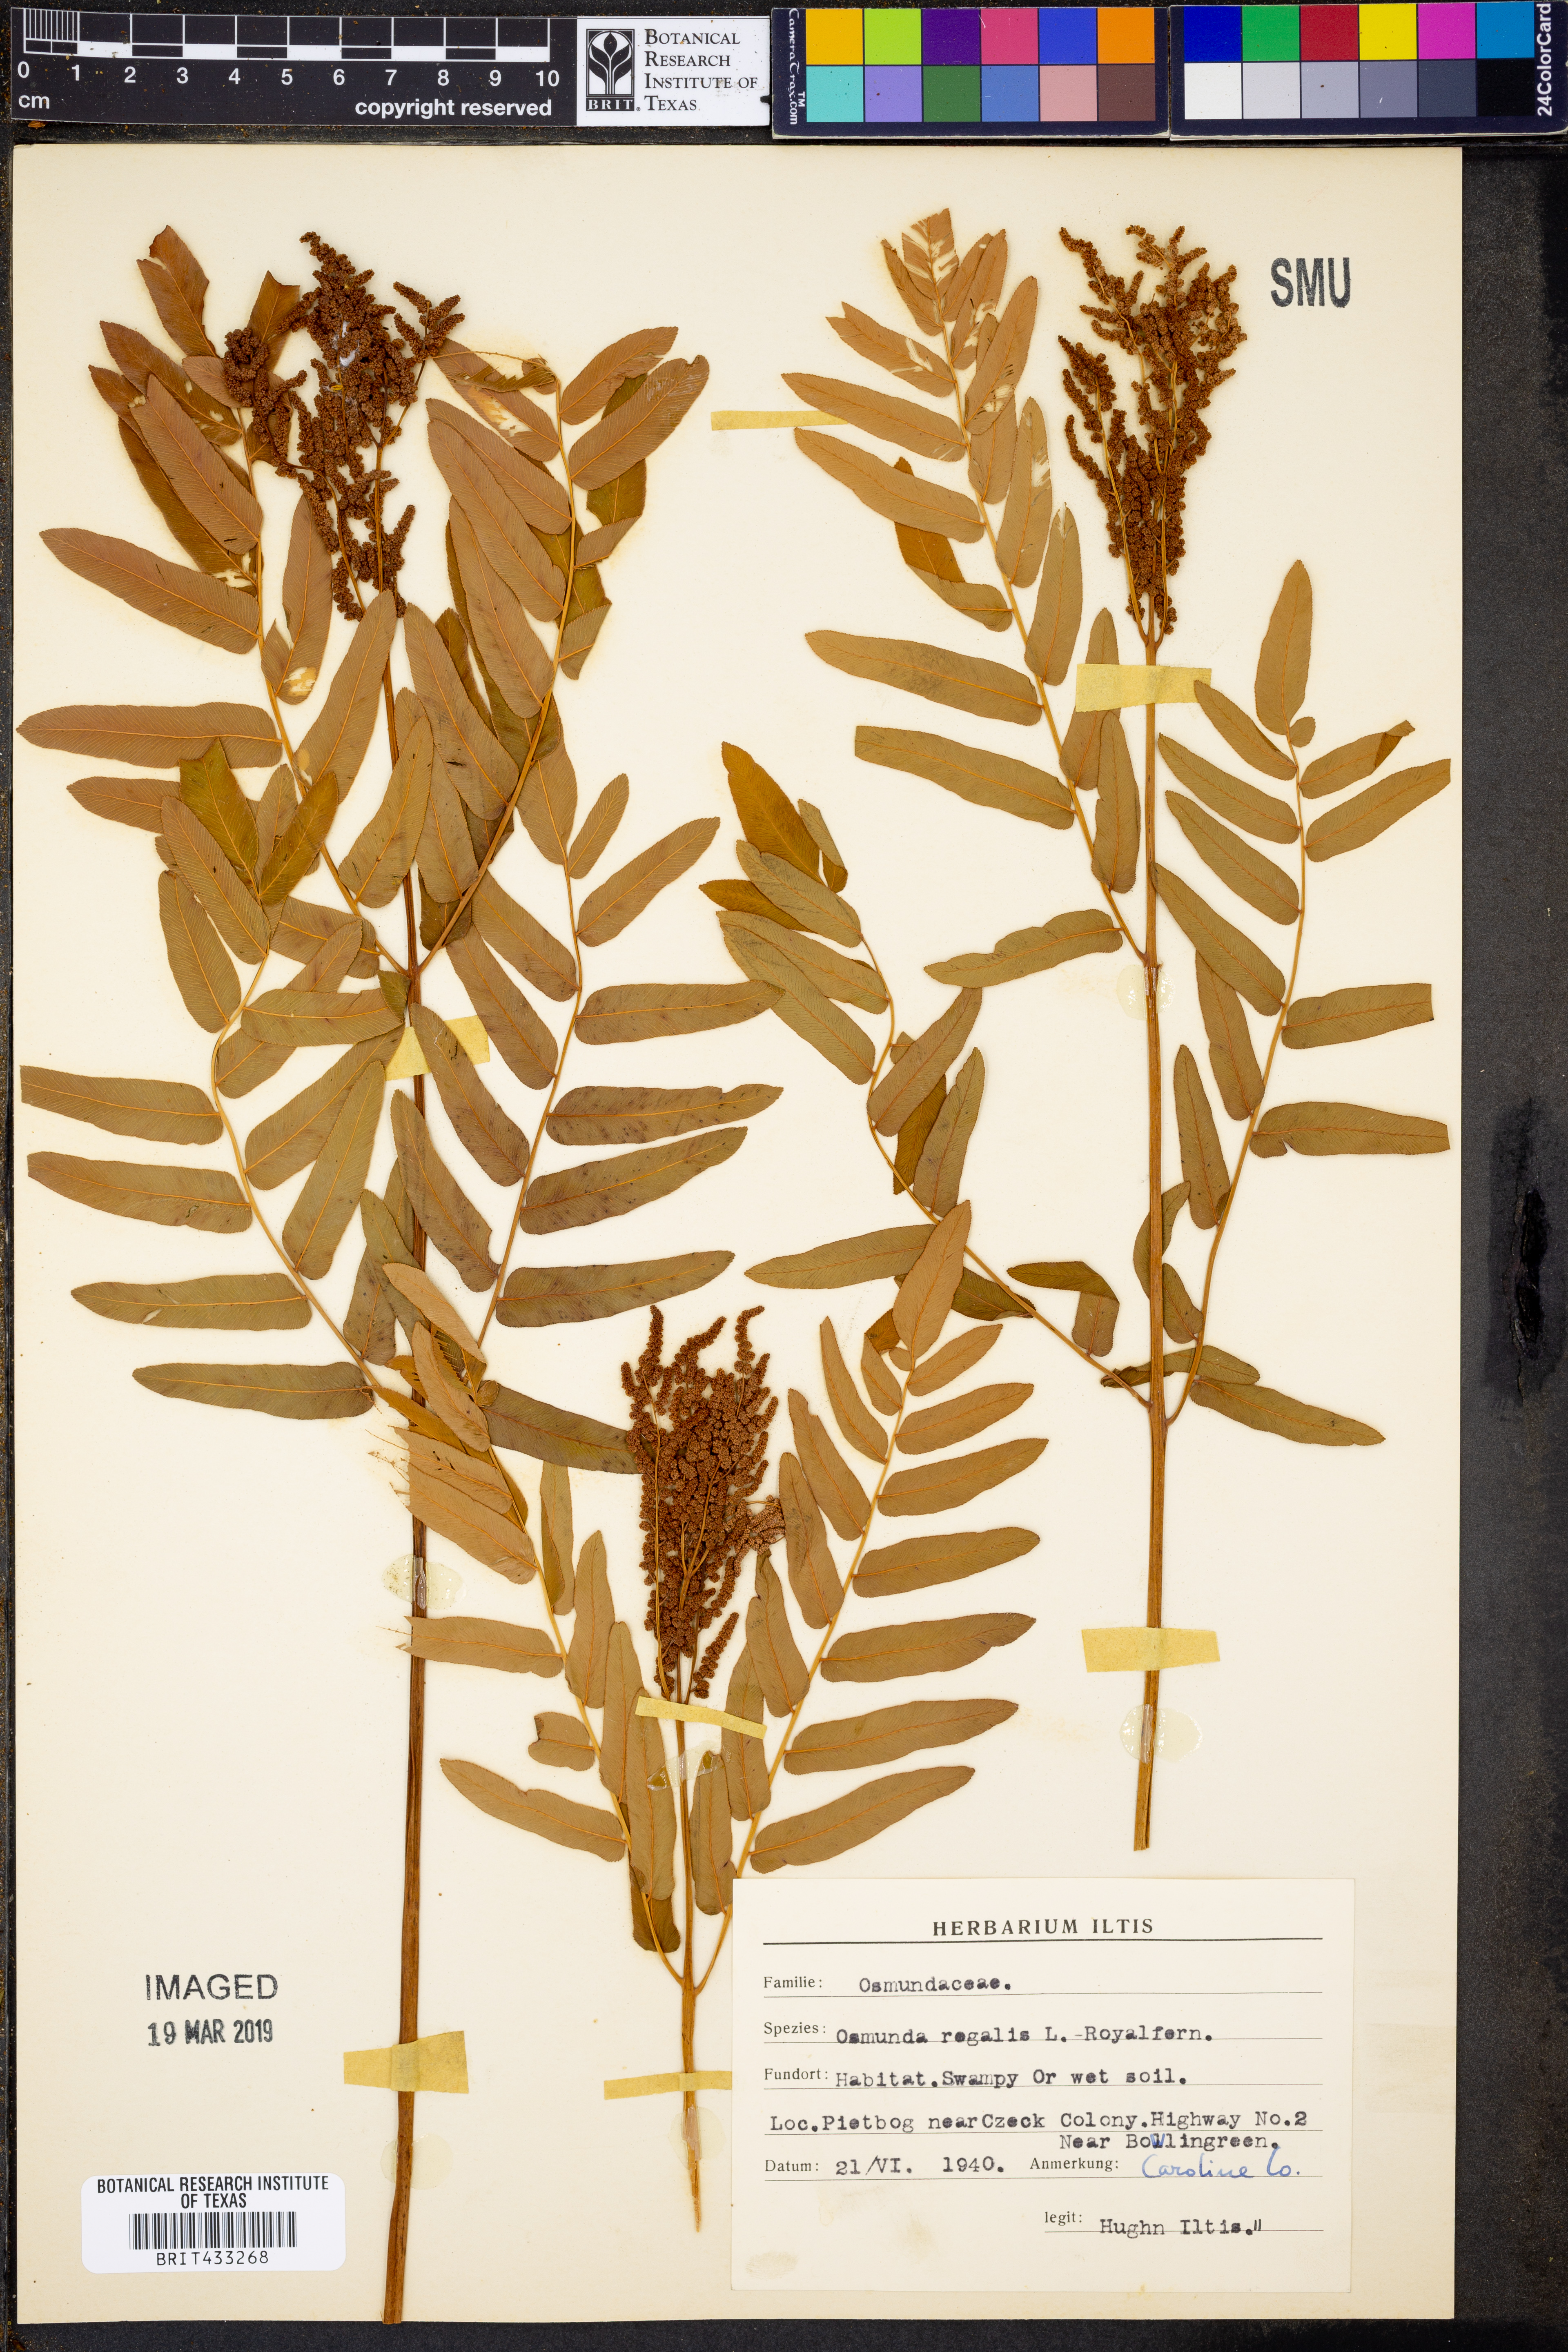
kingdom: Plantae
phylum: Tracheophyta
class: Polypodiopsida
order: Osmundales
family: Osmundaceae
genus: Osmunda
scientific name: Osmunda regalis
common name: Royal fern
